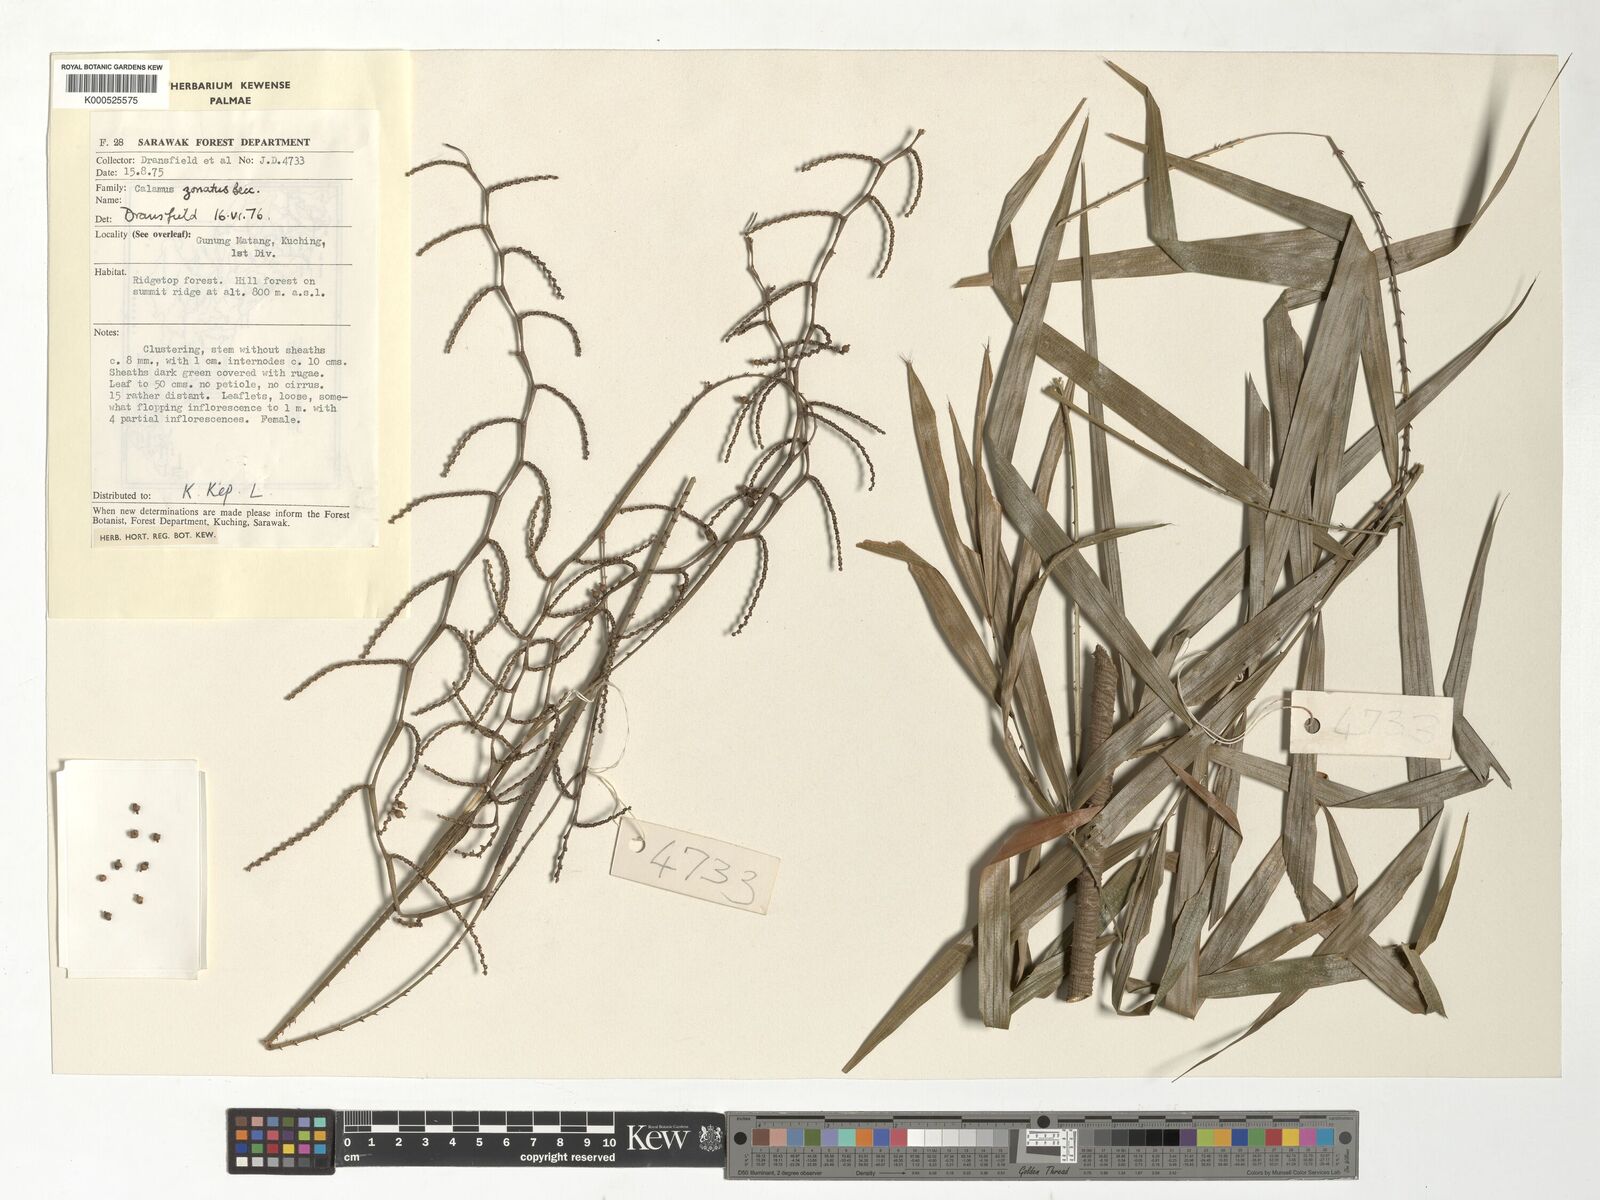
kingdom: Plantae
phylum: Tracheophyta
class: Liliopsida
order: Arecales
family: Arecaceae
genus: Calamus
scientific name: Calamus zonatus
